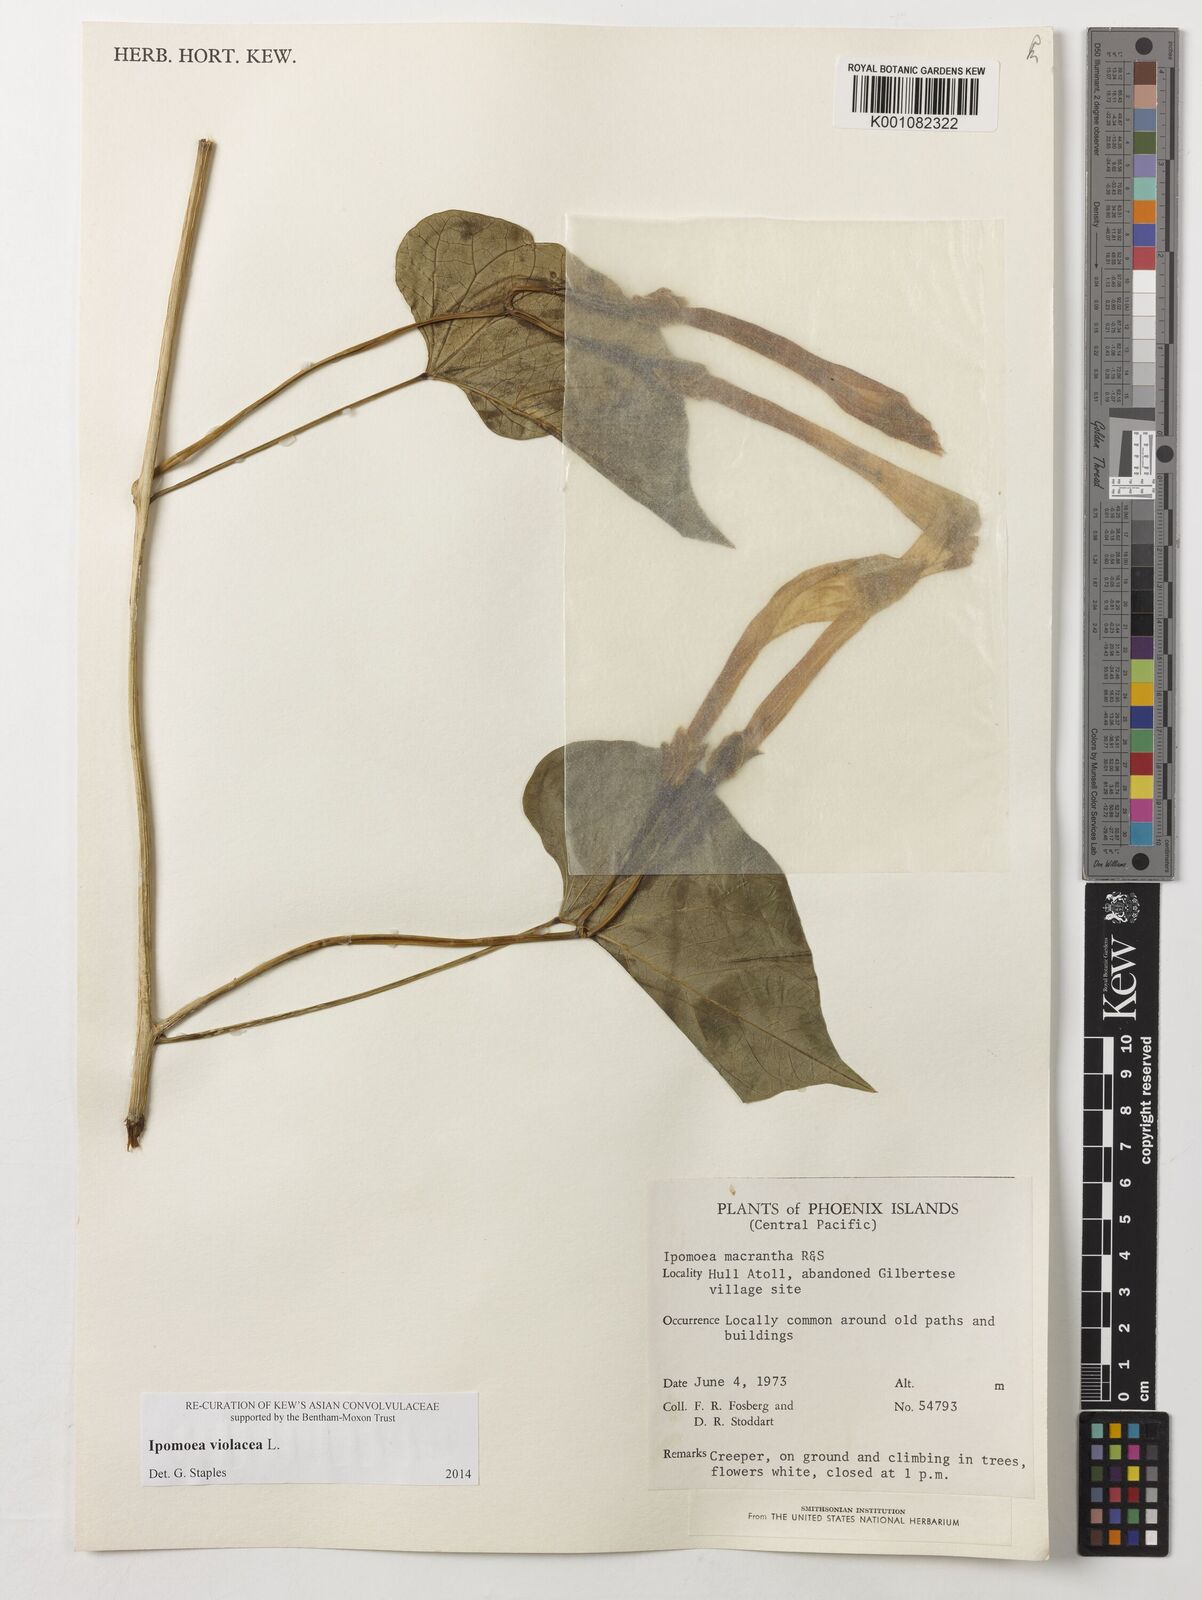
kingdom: Plantae
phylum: Tracheophyta
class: Magnoliopsida
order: Solanales
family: Convolvulaceae
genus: Ipomoea
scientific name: Ipomoea violacea
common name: Beach moonflower
